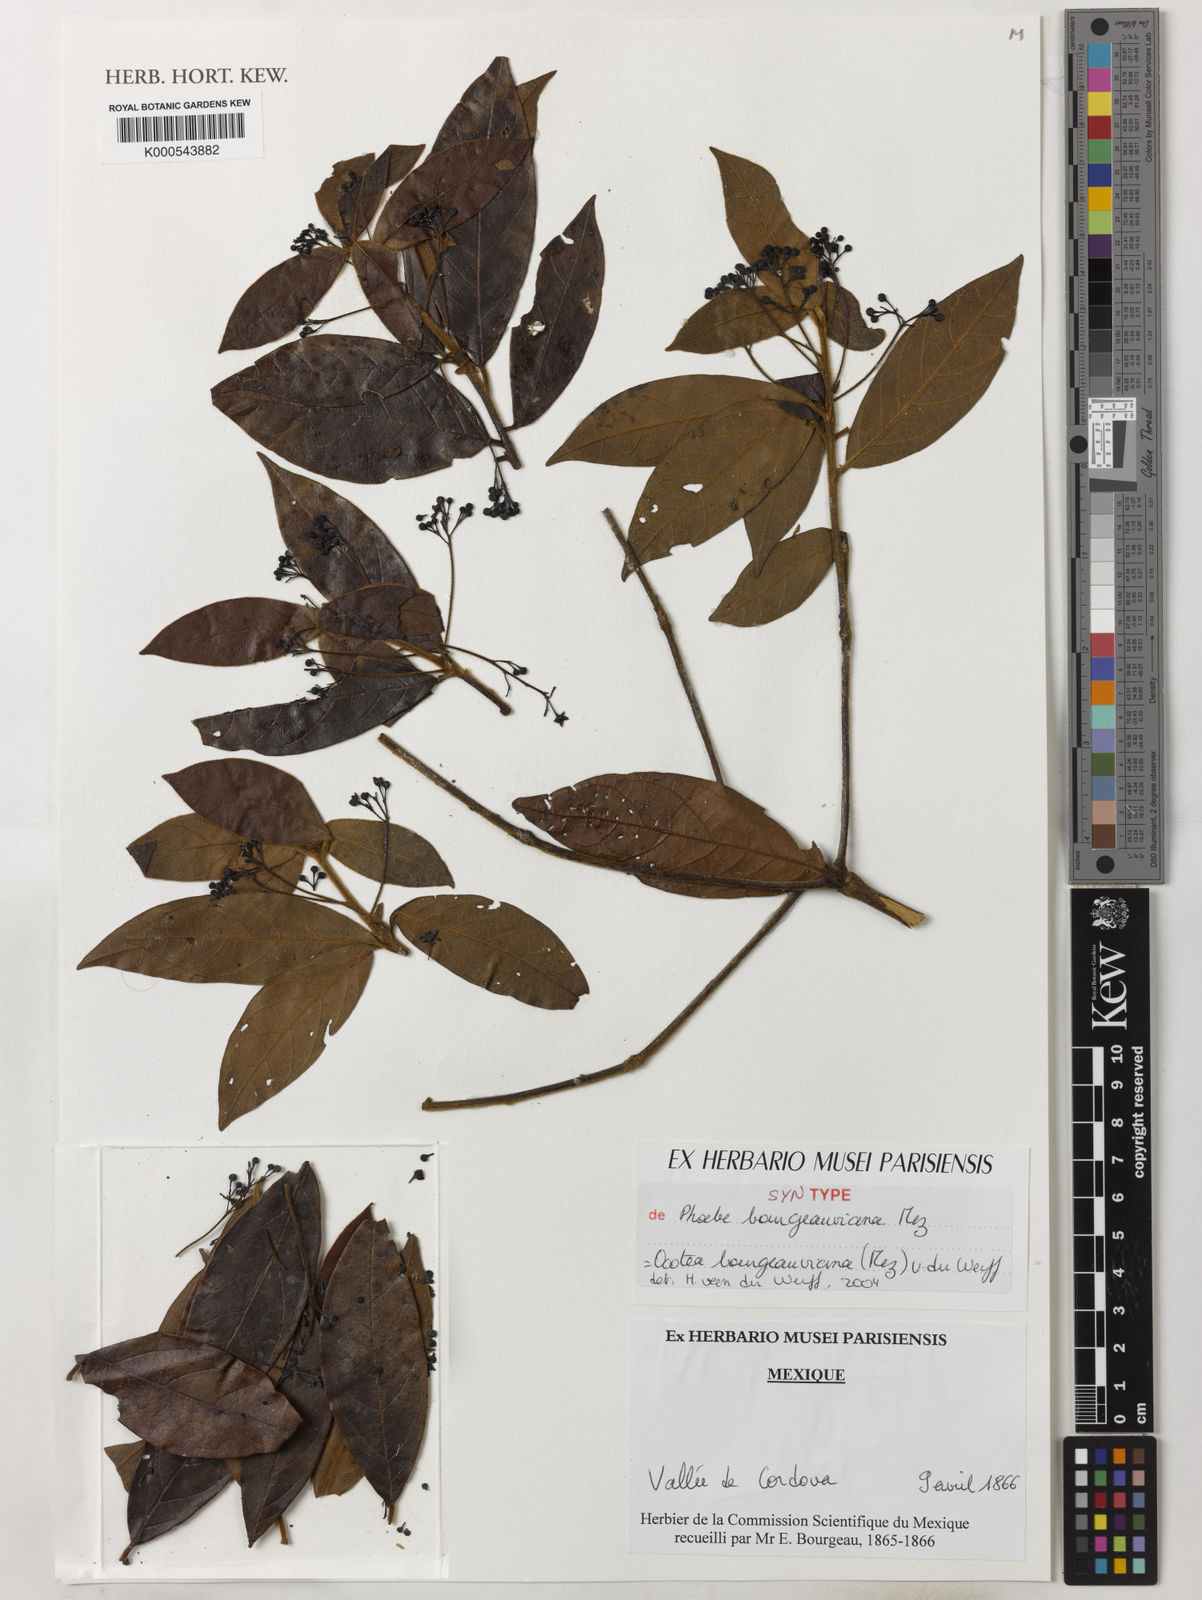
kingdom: Plantae
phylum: Tracheophyta
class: Magnoliopsida
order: Laurales
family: Lauraceae
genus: Ocotea
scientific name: Ocotea bourgeauviana
